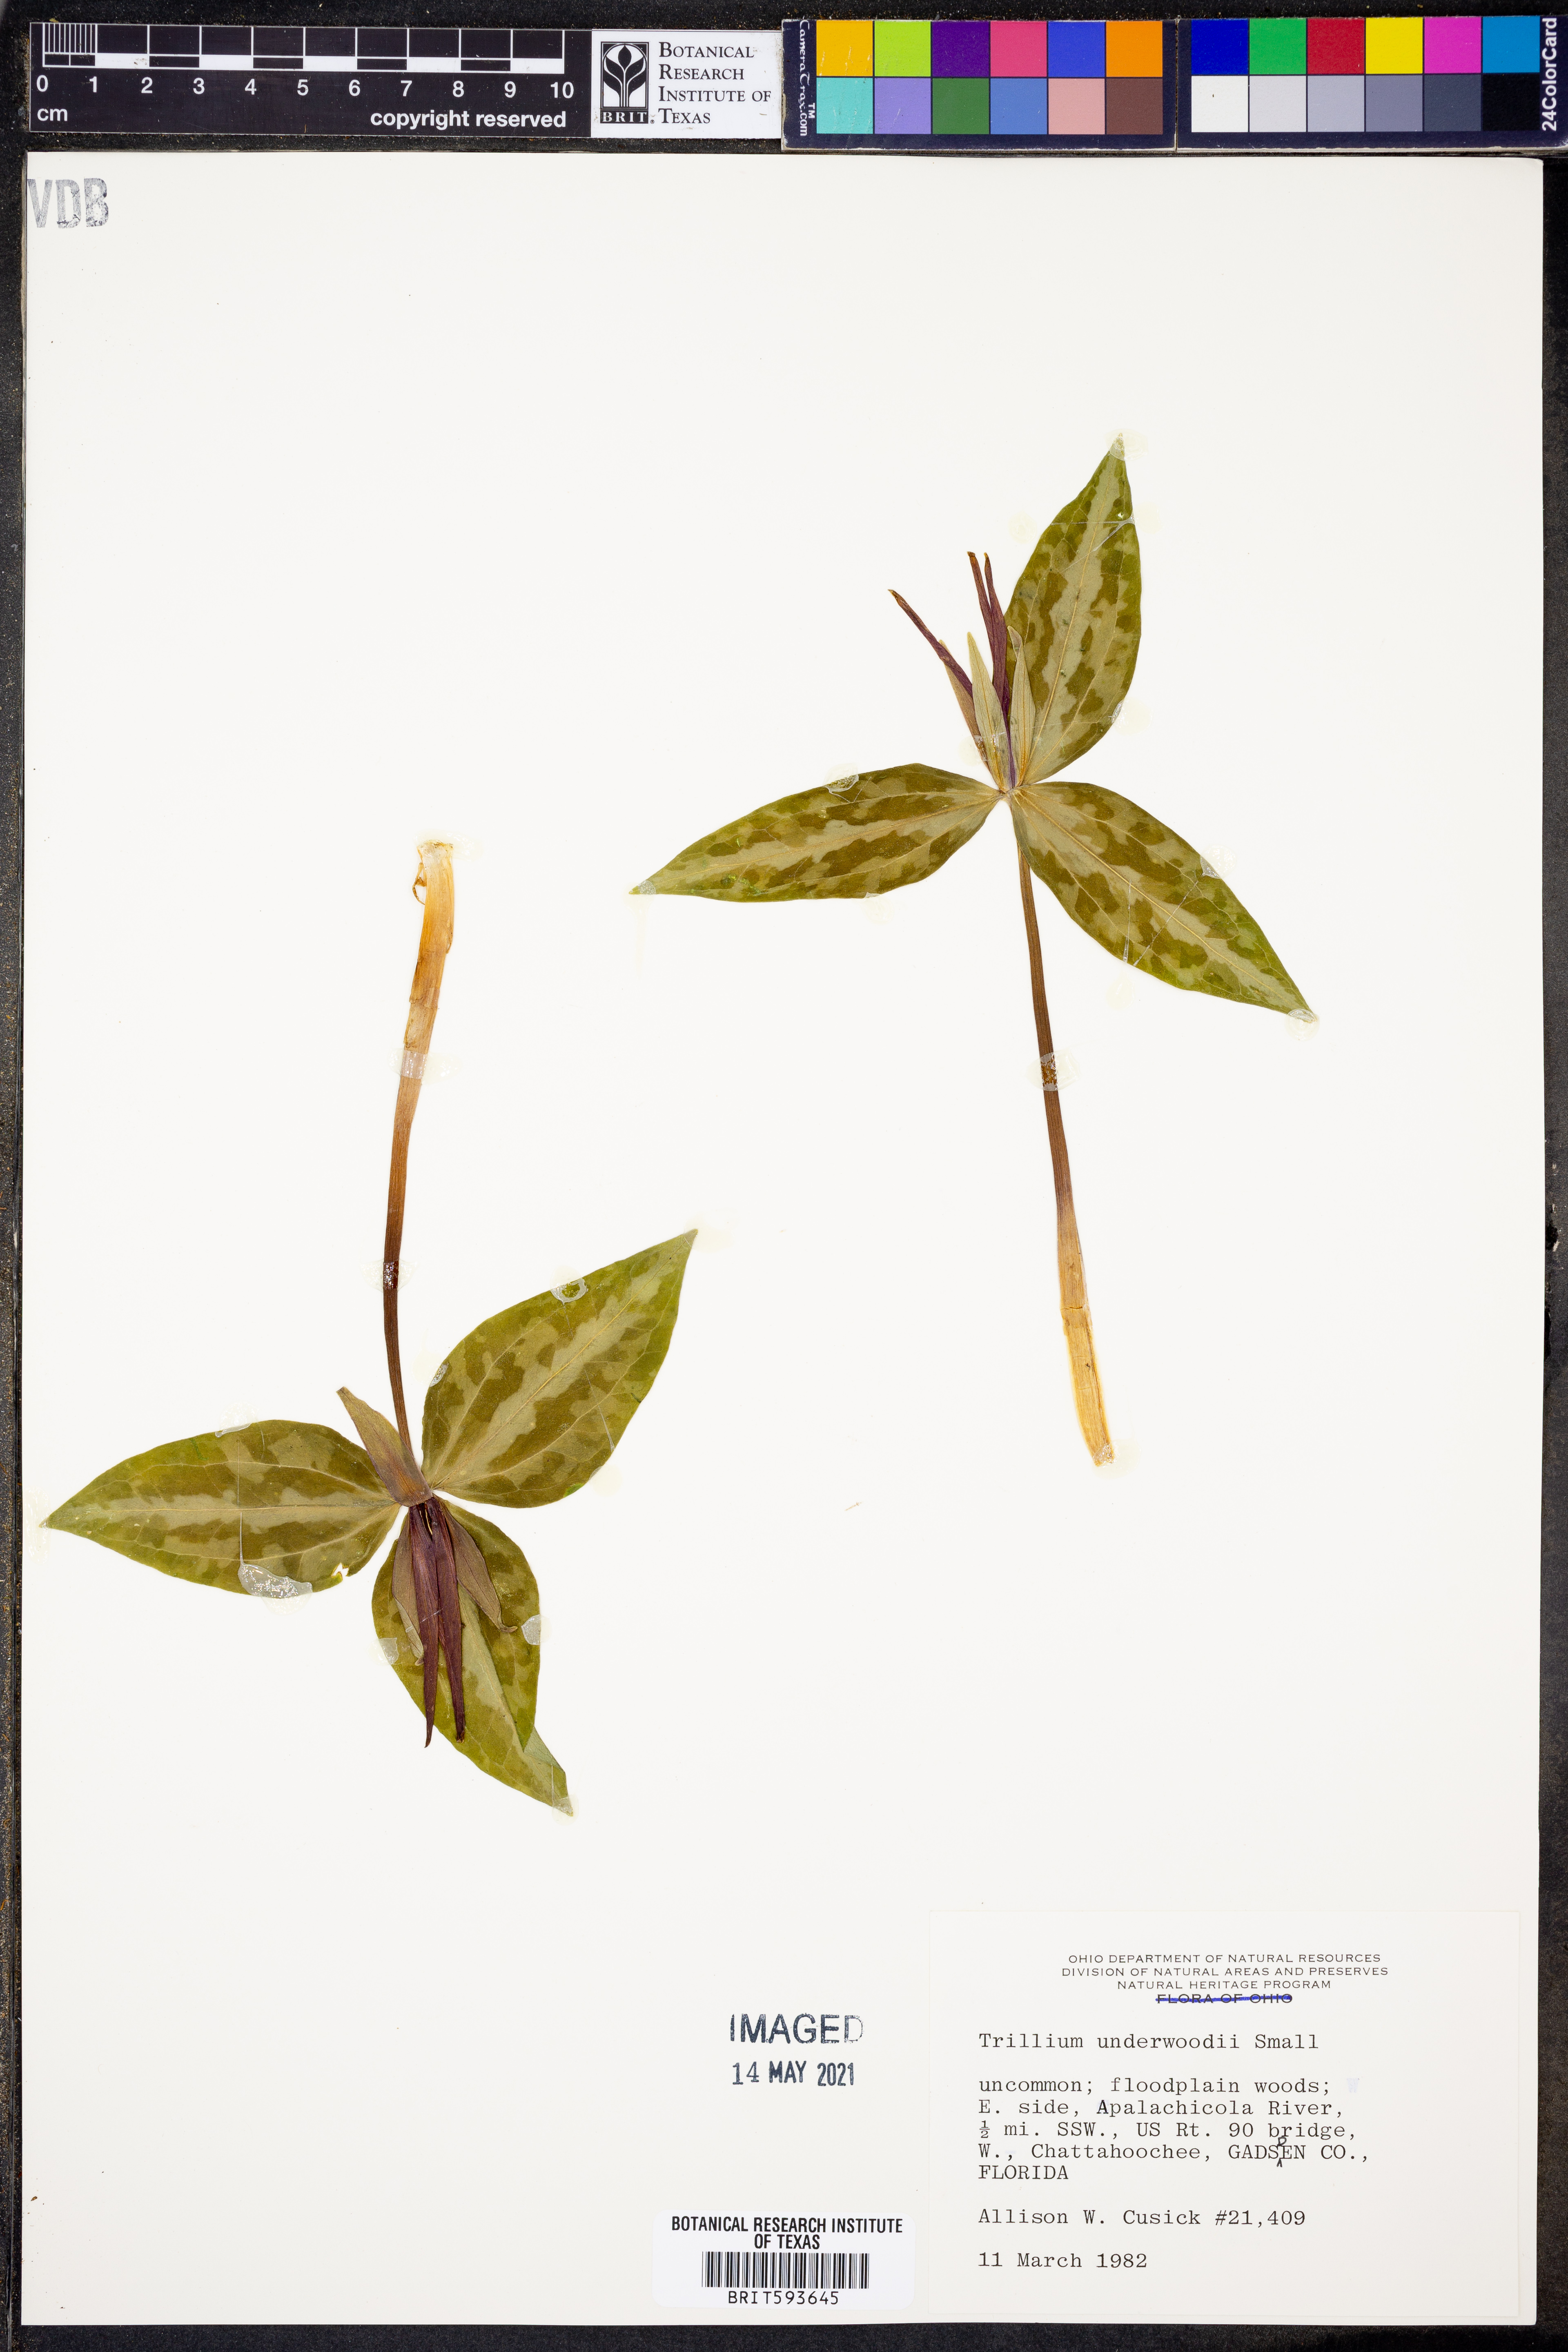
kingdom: Plantae
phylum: Tracheophyta
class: Liliopsida
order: Liliales
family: Melanthiaceae
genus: Trillium
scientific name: Trillium underwoodii
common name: Longbract wakerobin
